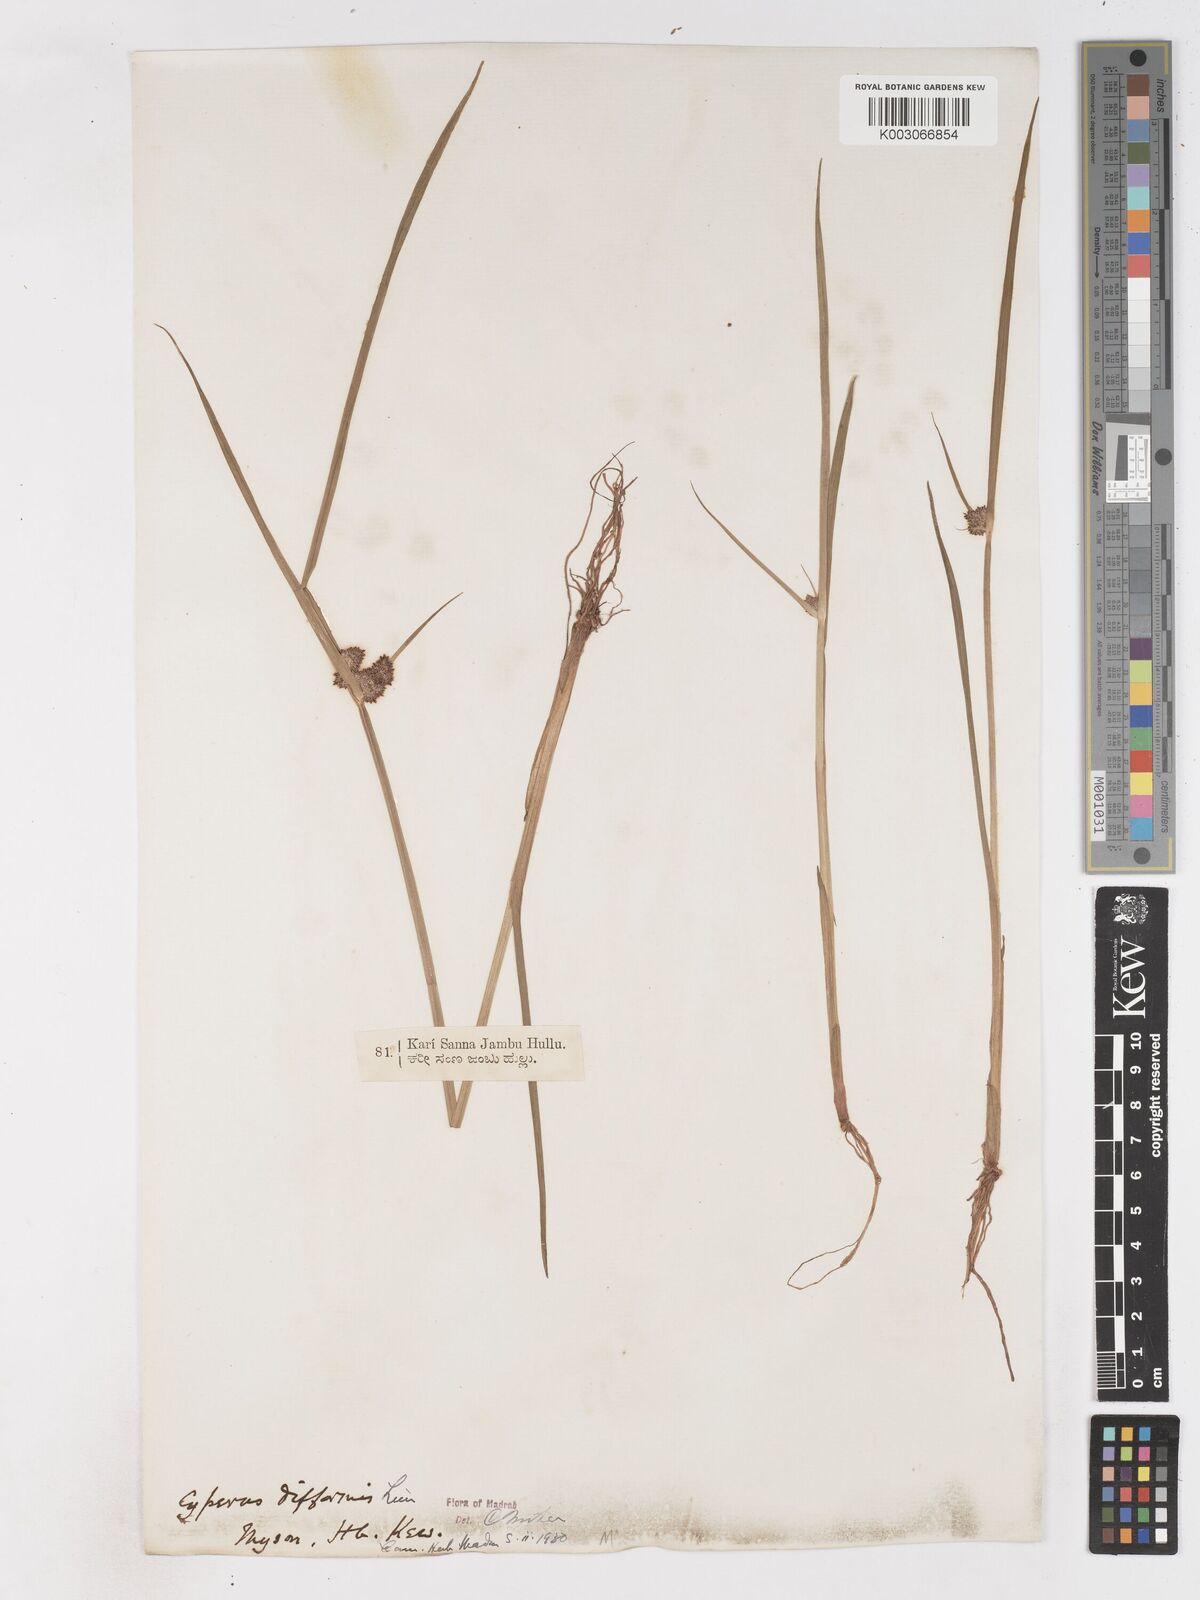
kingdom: Plantae
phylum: Tracheophyta
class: Liliopsida
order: Poales
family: Cyperaceae
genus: Cyperus
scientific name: Cyperus difformis
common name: Variable flatsedge
